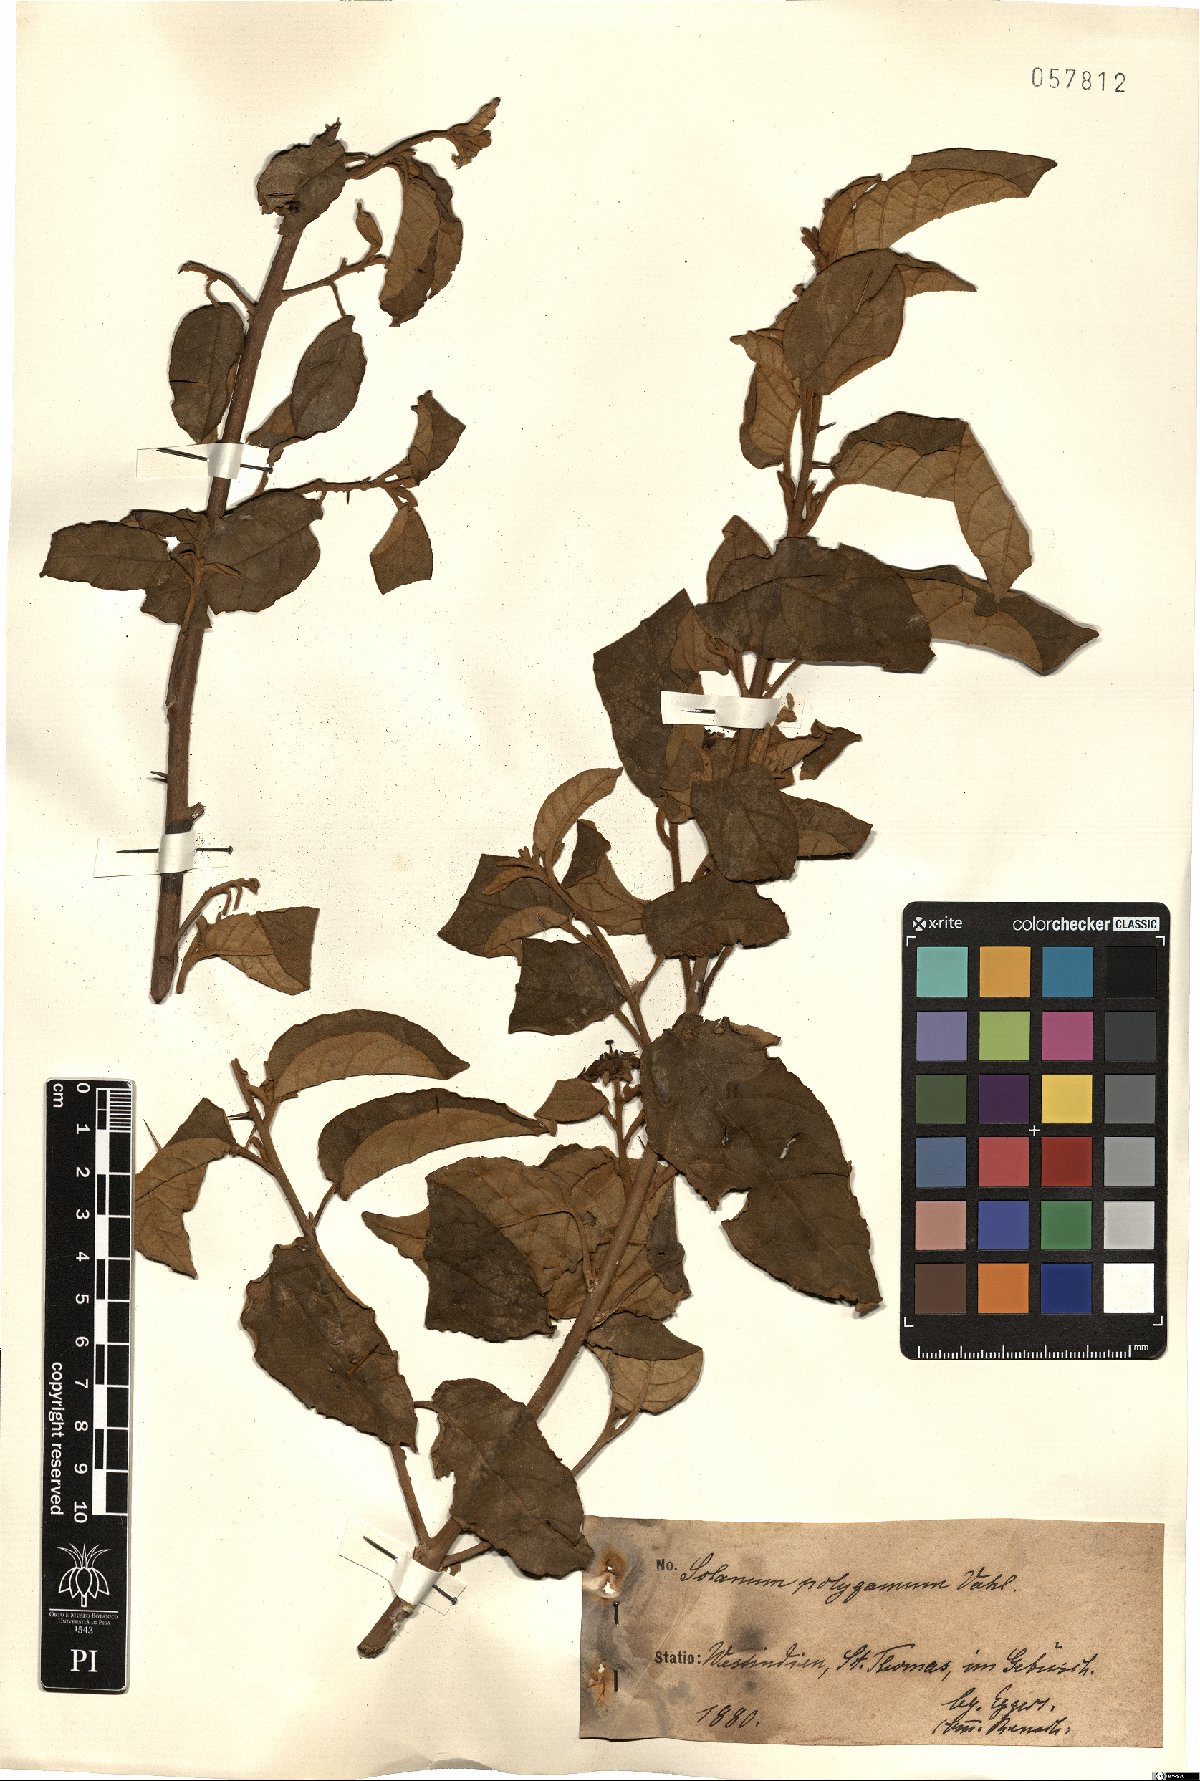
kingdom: Plantae
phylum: Tracheophyta
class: Magnoliopsida
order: Solanales
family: Solanaceae
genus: Solanum
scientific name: Solanum houstonii
